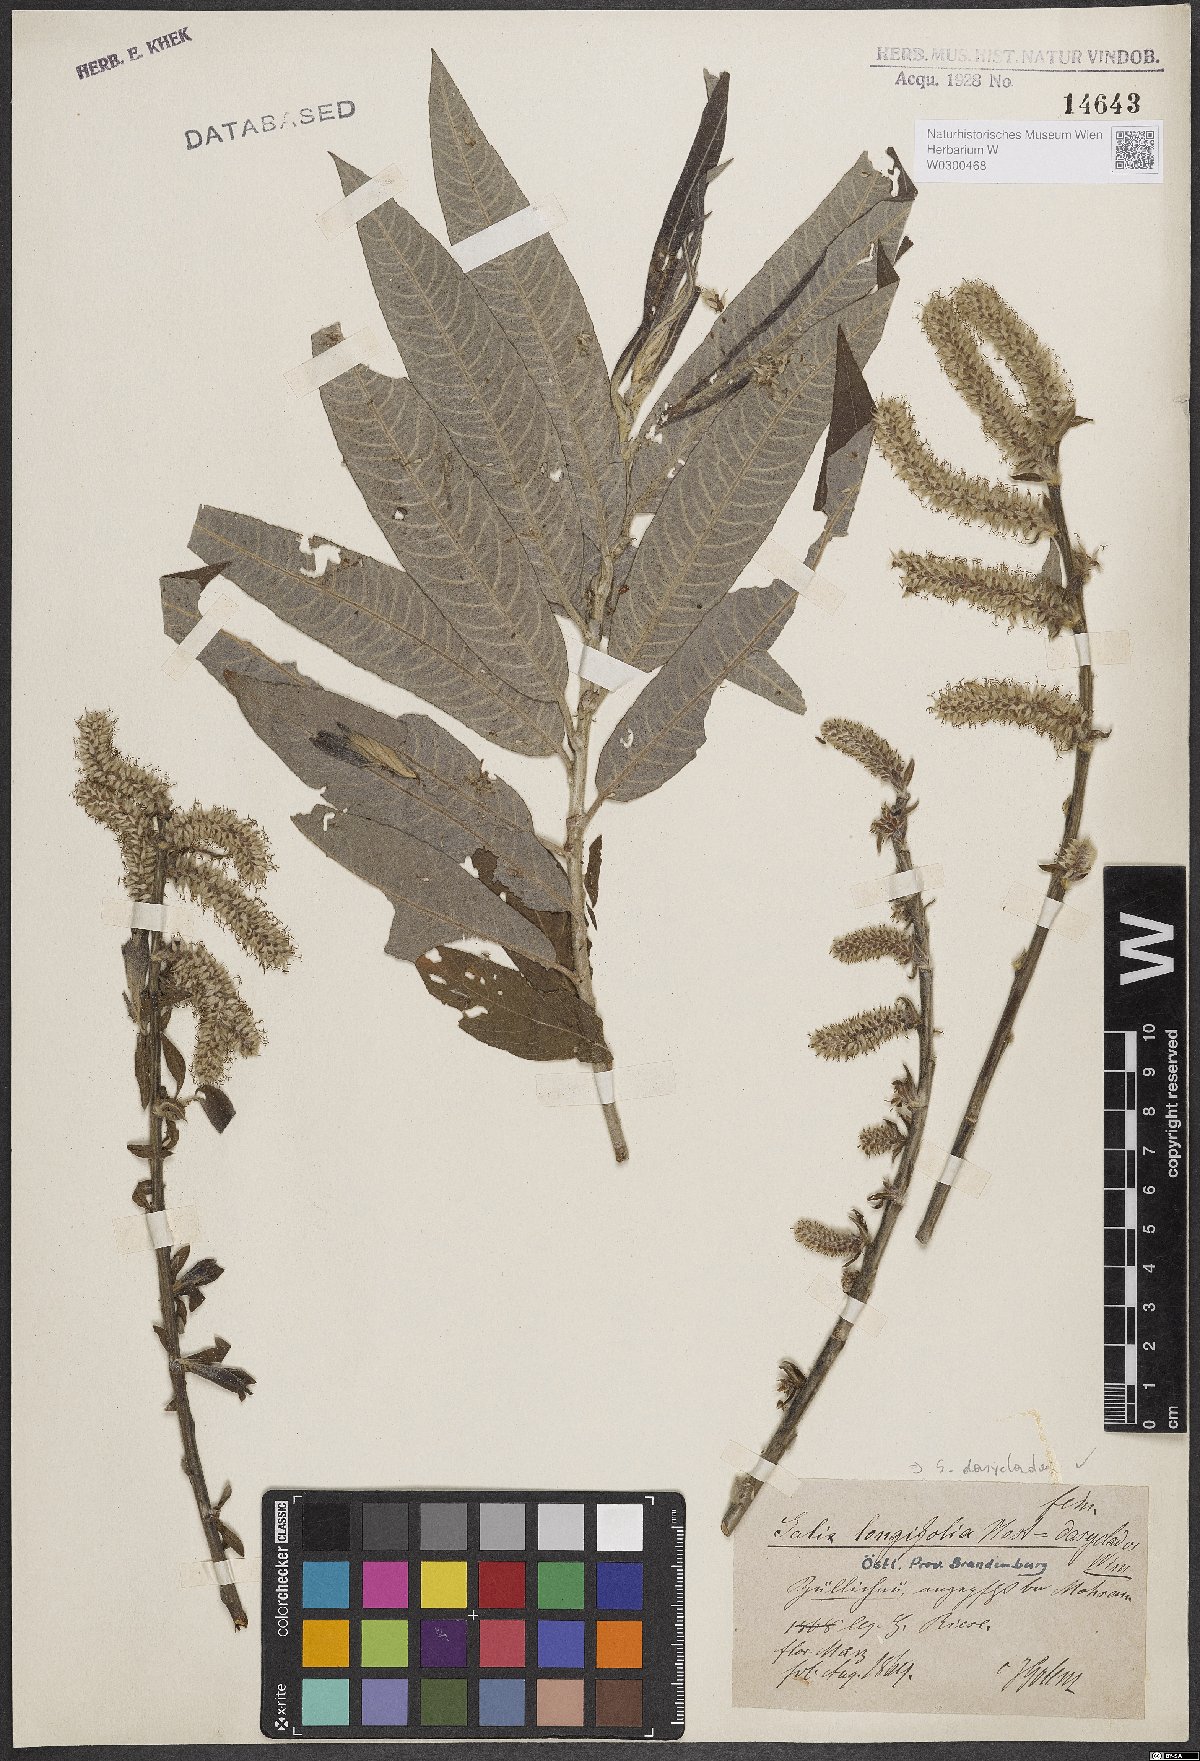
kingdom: Plantae
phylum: Tracheophyta
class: Magnoliopsida
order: Malpighiales
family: Salicaceae
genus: Salix
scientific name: Salix gmelinii
